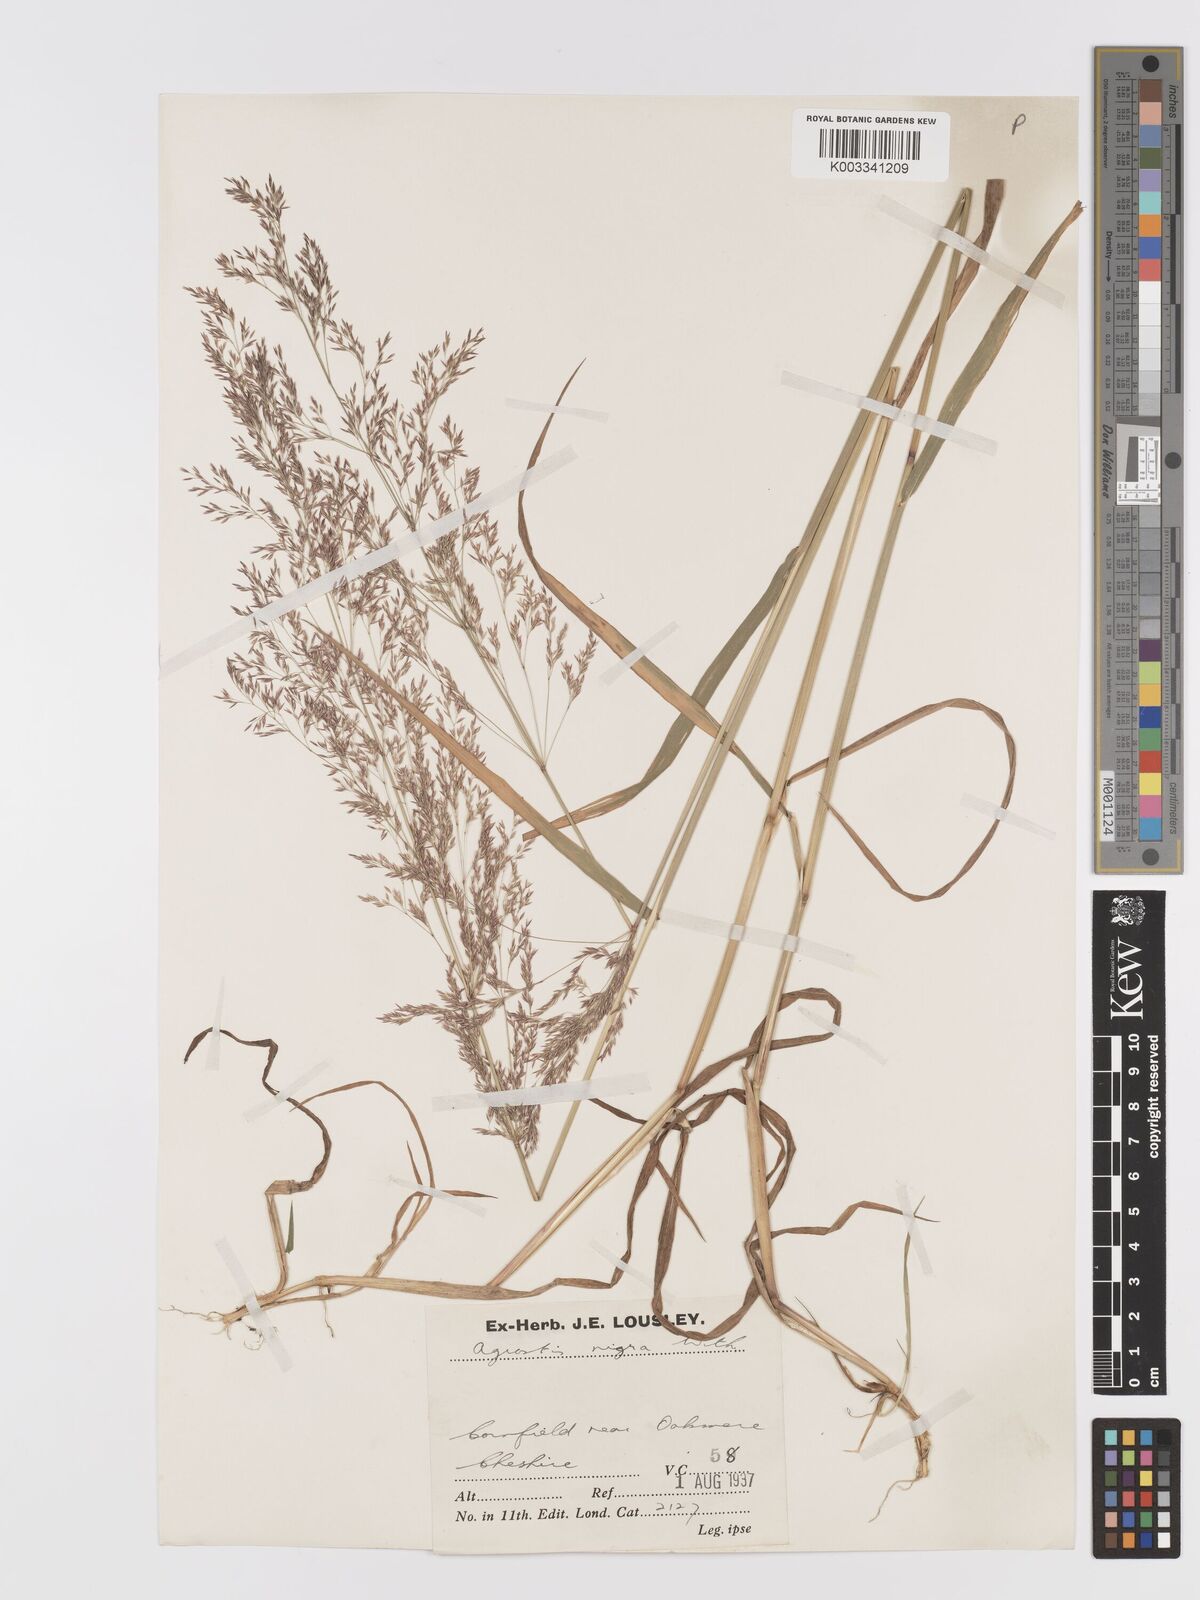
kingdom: Plantae
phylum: Tracheophyta
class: Liliopsida
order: Poales
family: Poaceae
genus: Agrostis
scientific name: Agrostis gigantea
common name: Black bent
